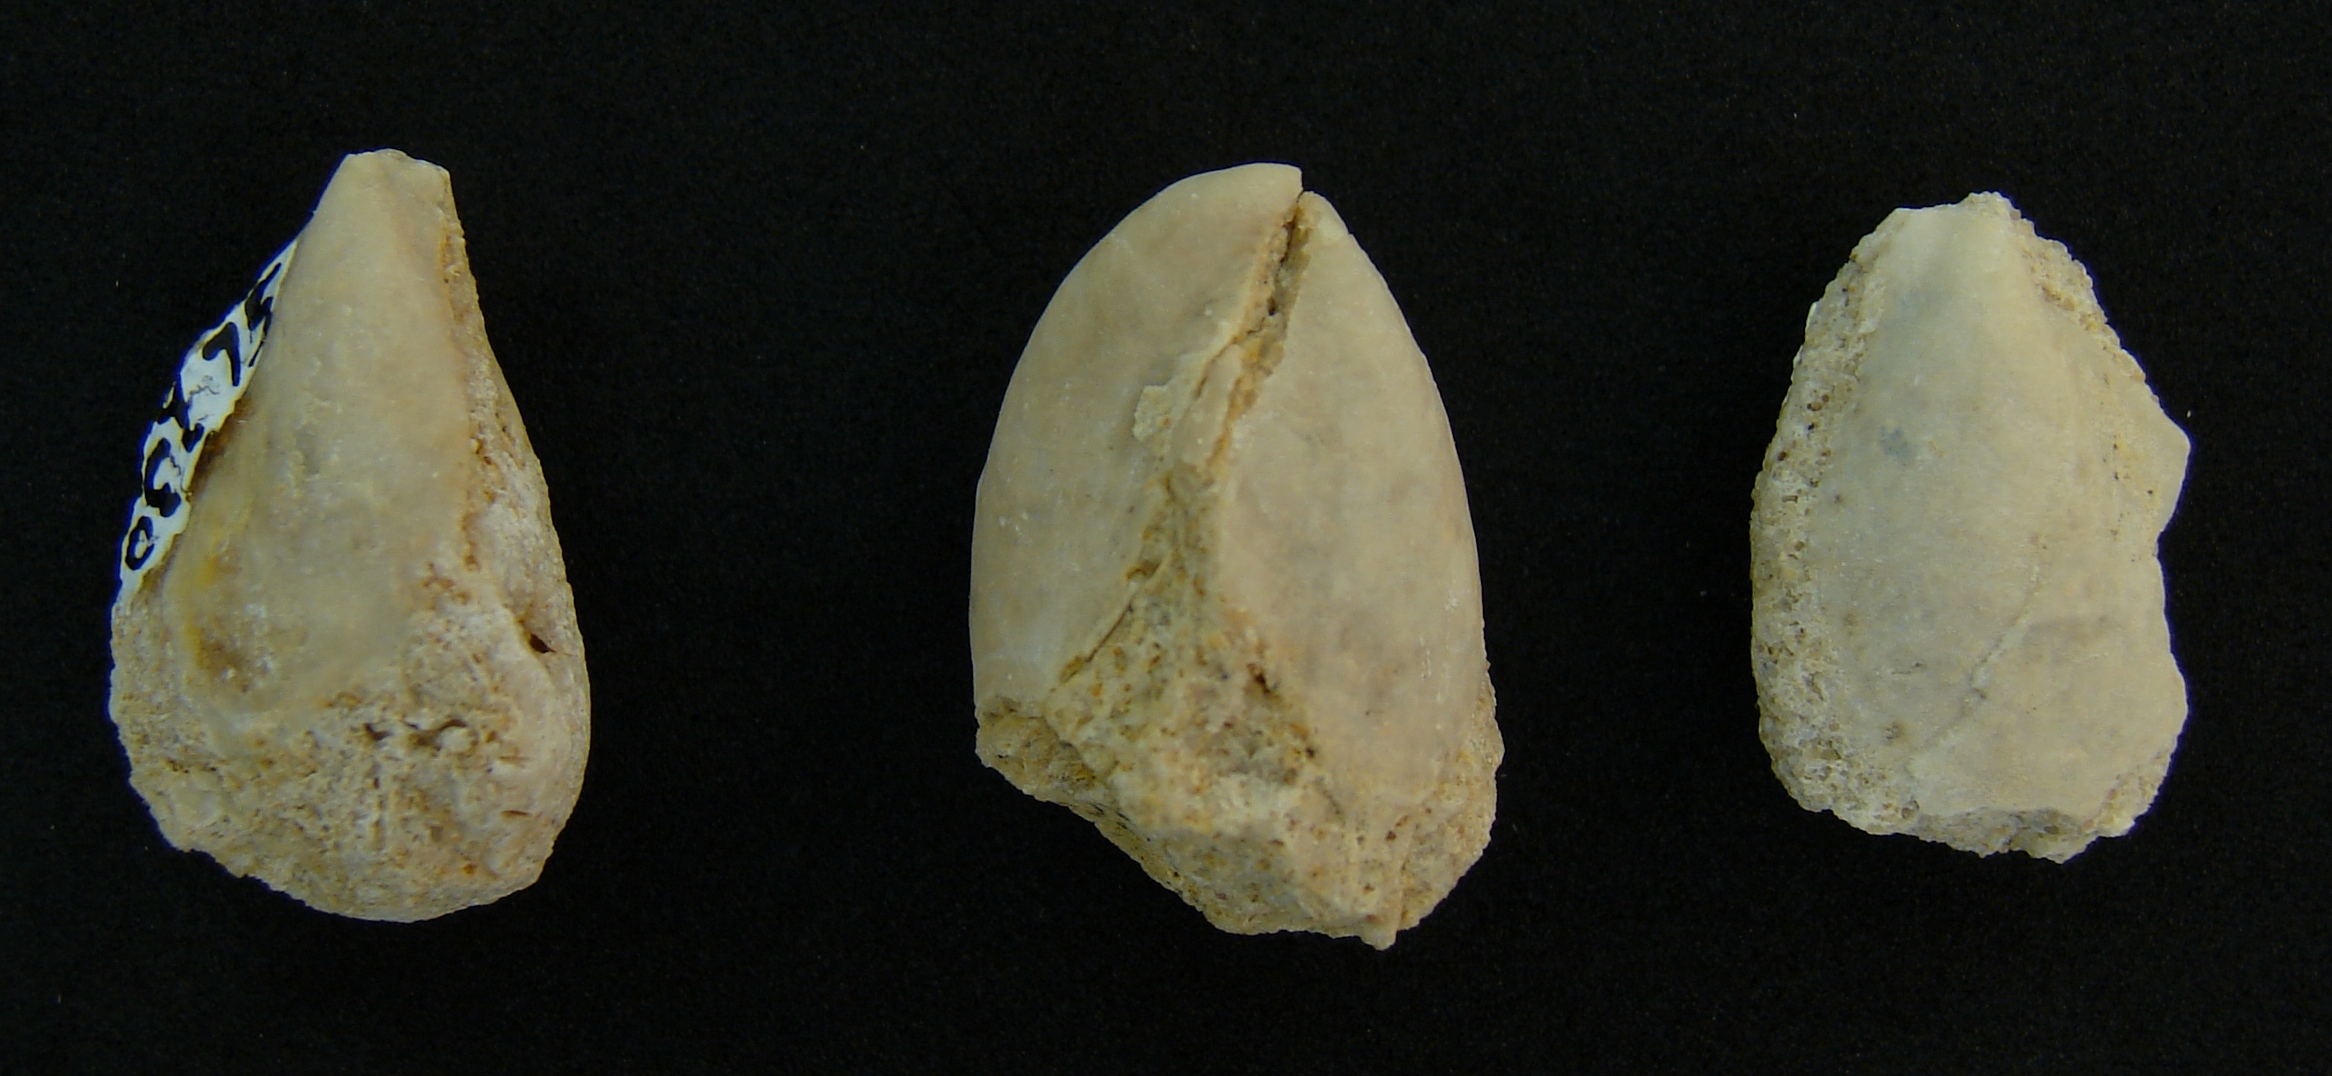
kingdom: Animalia
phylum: Mollusca
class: Bivalvia
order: Ostreida
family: Pteriidae
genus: Pteria
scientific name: Pteria
